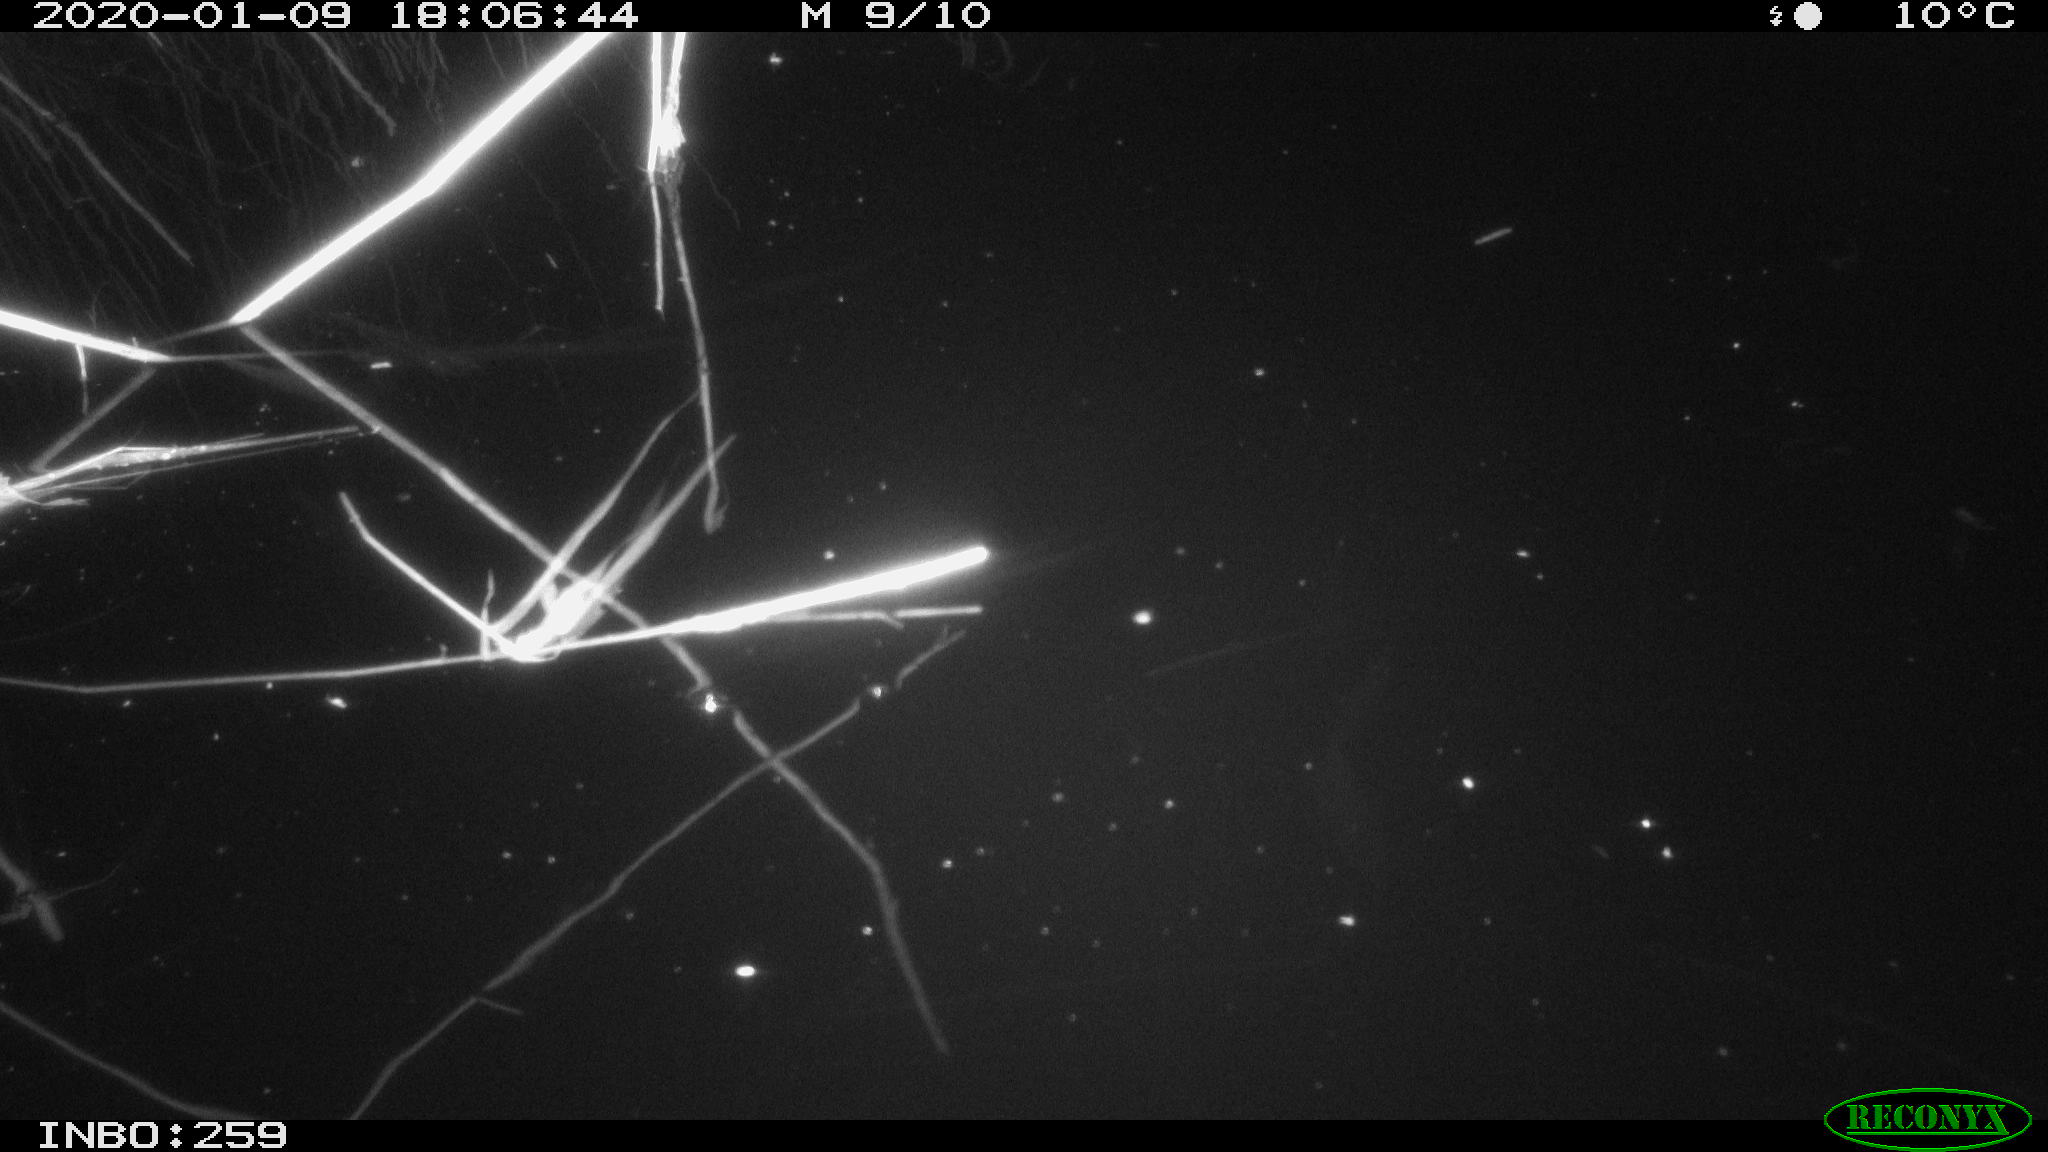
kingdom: Animalia
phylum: Chordata
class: Aves
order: Gruiformes
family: Rallidae
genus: Gallinula
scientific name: Gallinula chloropus
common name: Common moorhen
